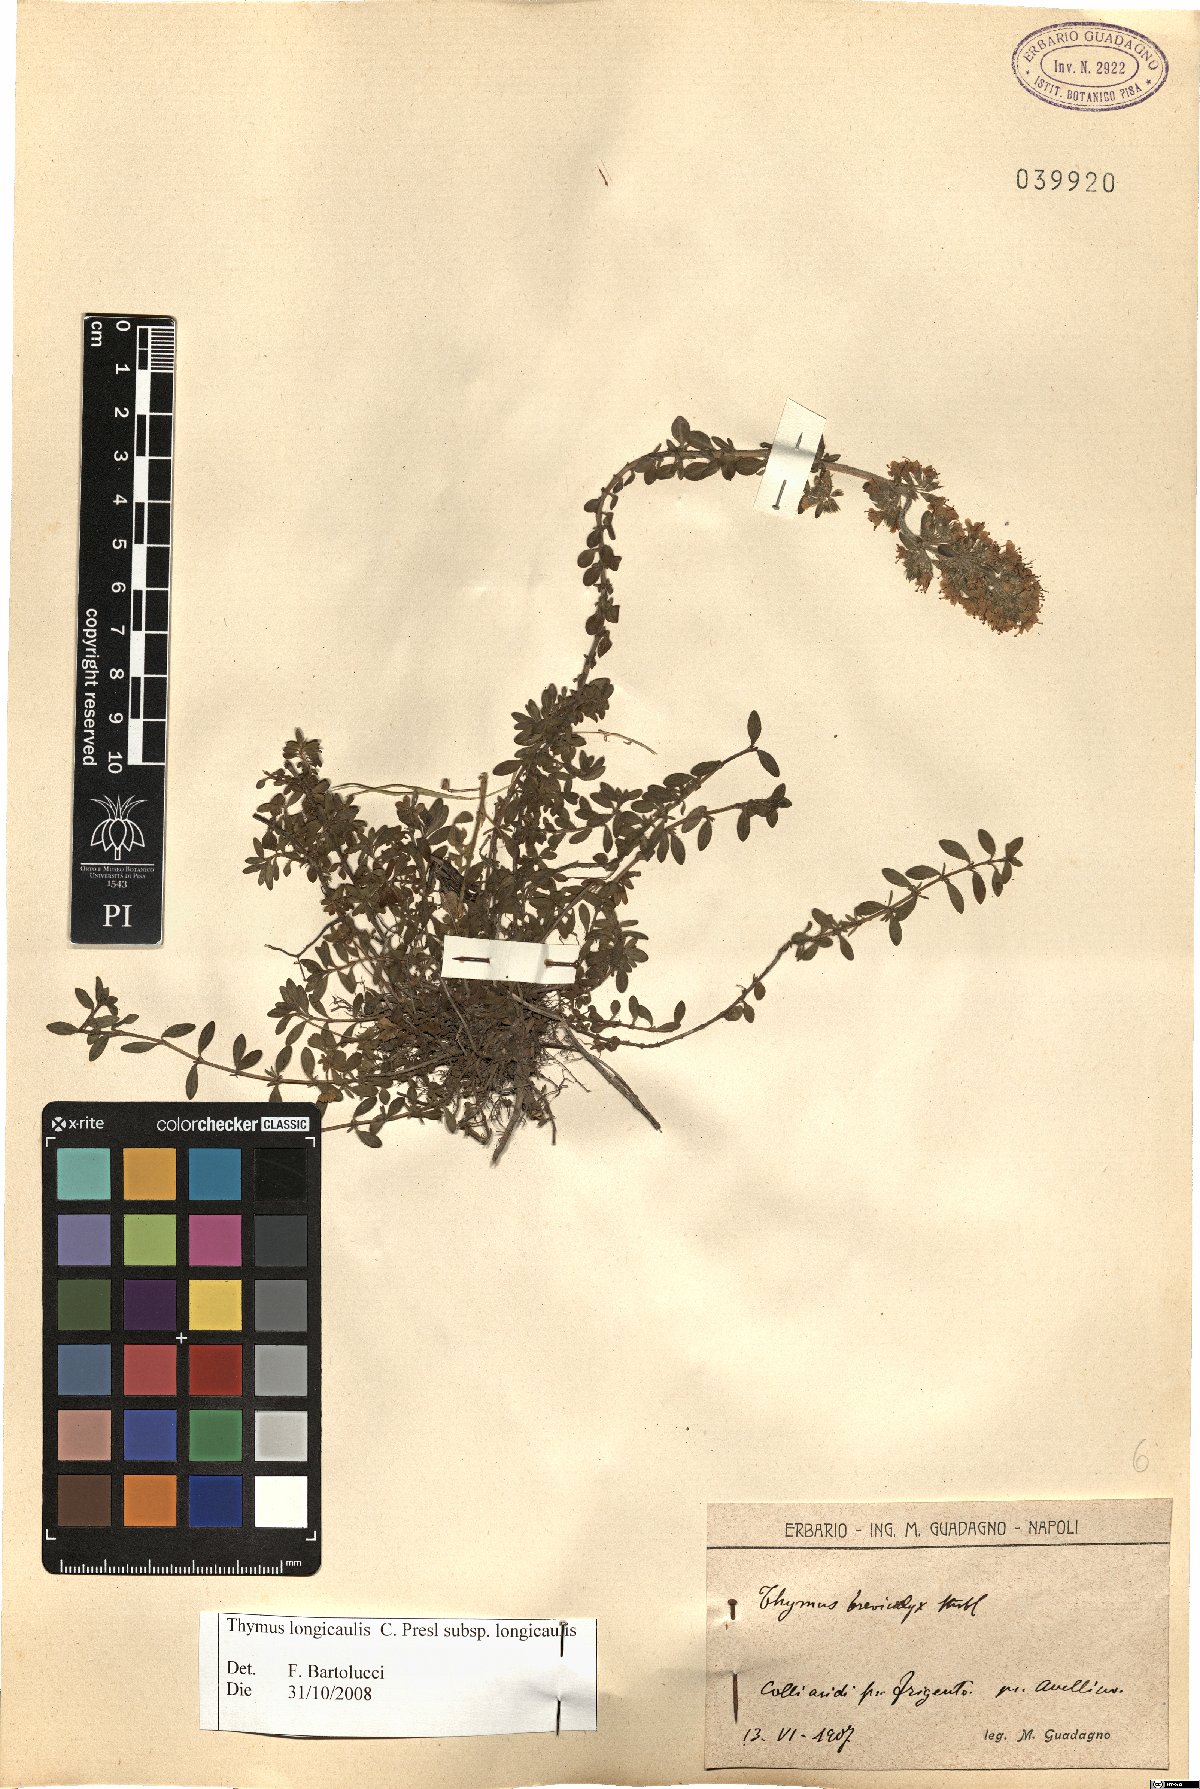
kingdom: Plantae
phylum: Tracheophyta
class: Magnoliopsida
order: Lamiales
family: Lamiaceae
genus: Thymus
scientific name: Thymus longicaulis
